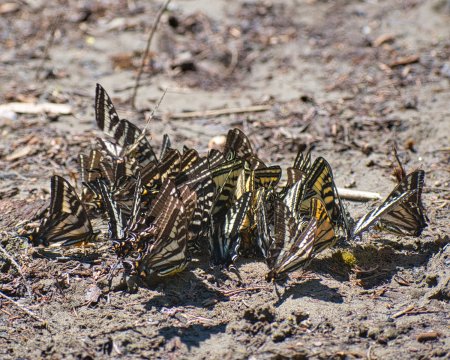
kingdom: Animalia
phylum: Arthropoda
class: Insecta
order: Lepidoptera
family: Papilionidae
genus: Pterourus
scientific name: Pterourus rutulus
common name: Western Tiger Swallowtail
